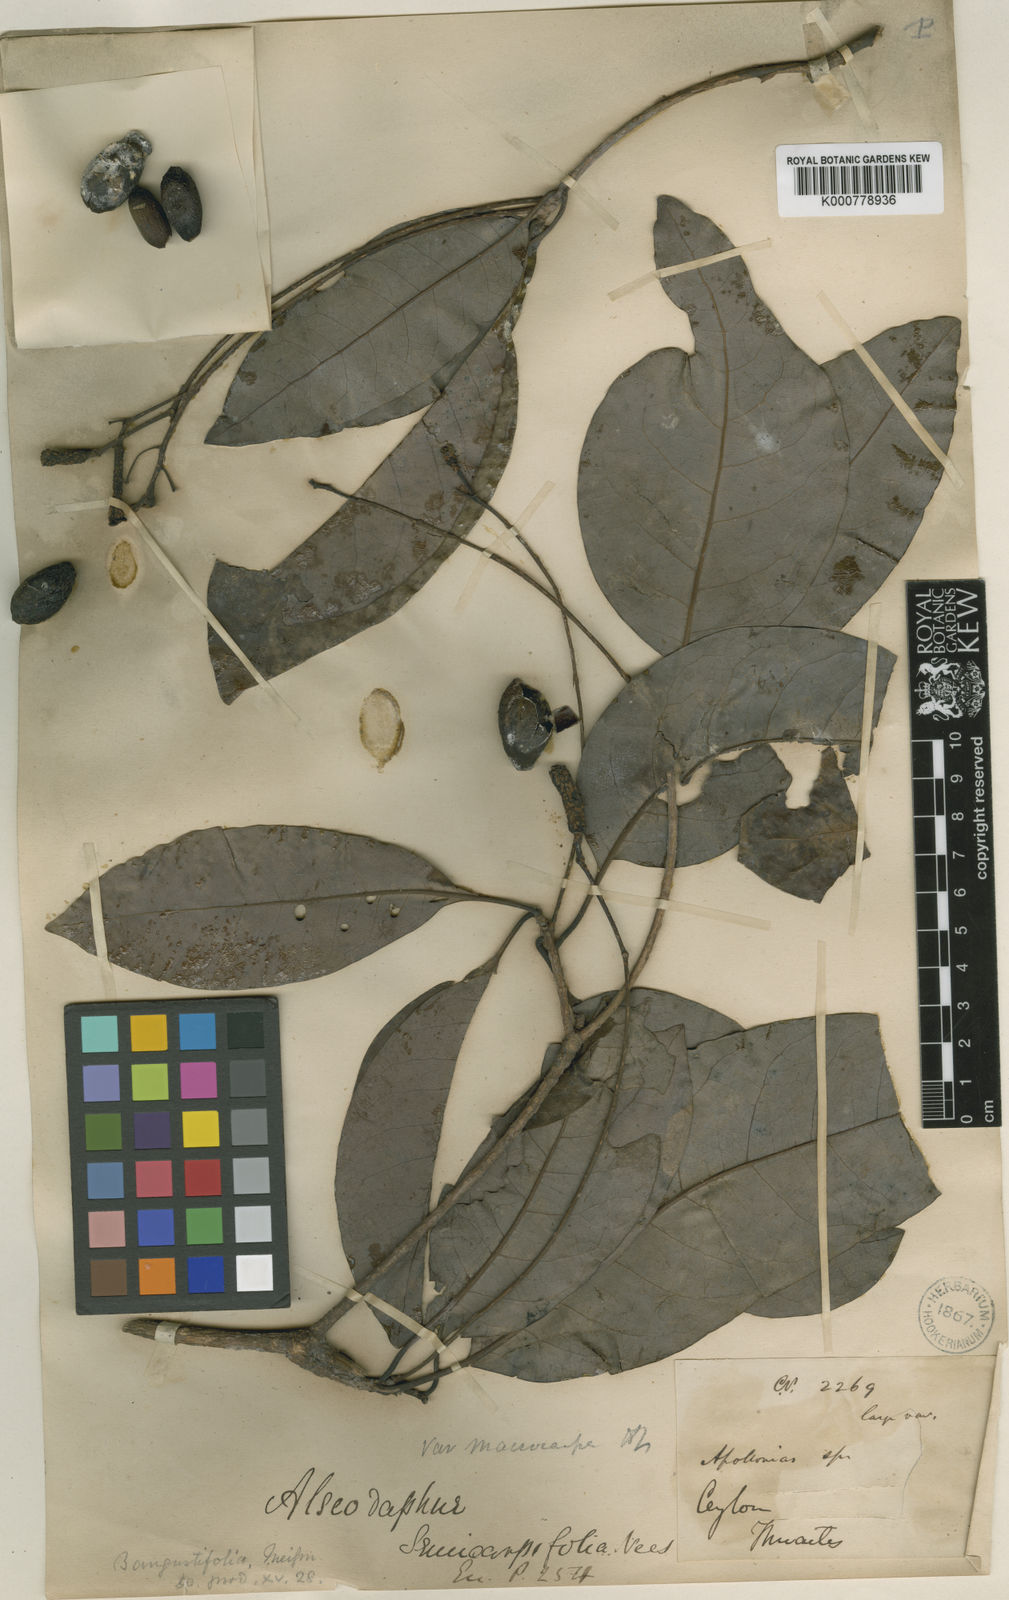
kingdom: Plantae
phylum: Tracheophyta
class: Magnoliopsida
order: Laurales
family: Lauraceae
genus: Alseodaphne
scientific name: Alseodaphne semecarpifolia
